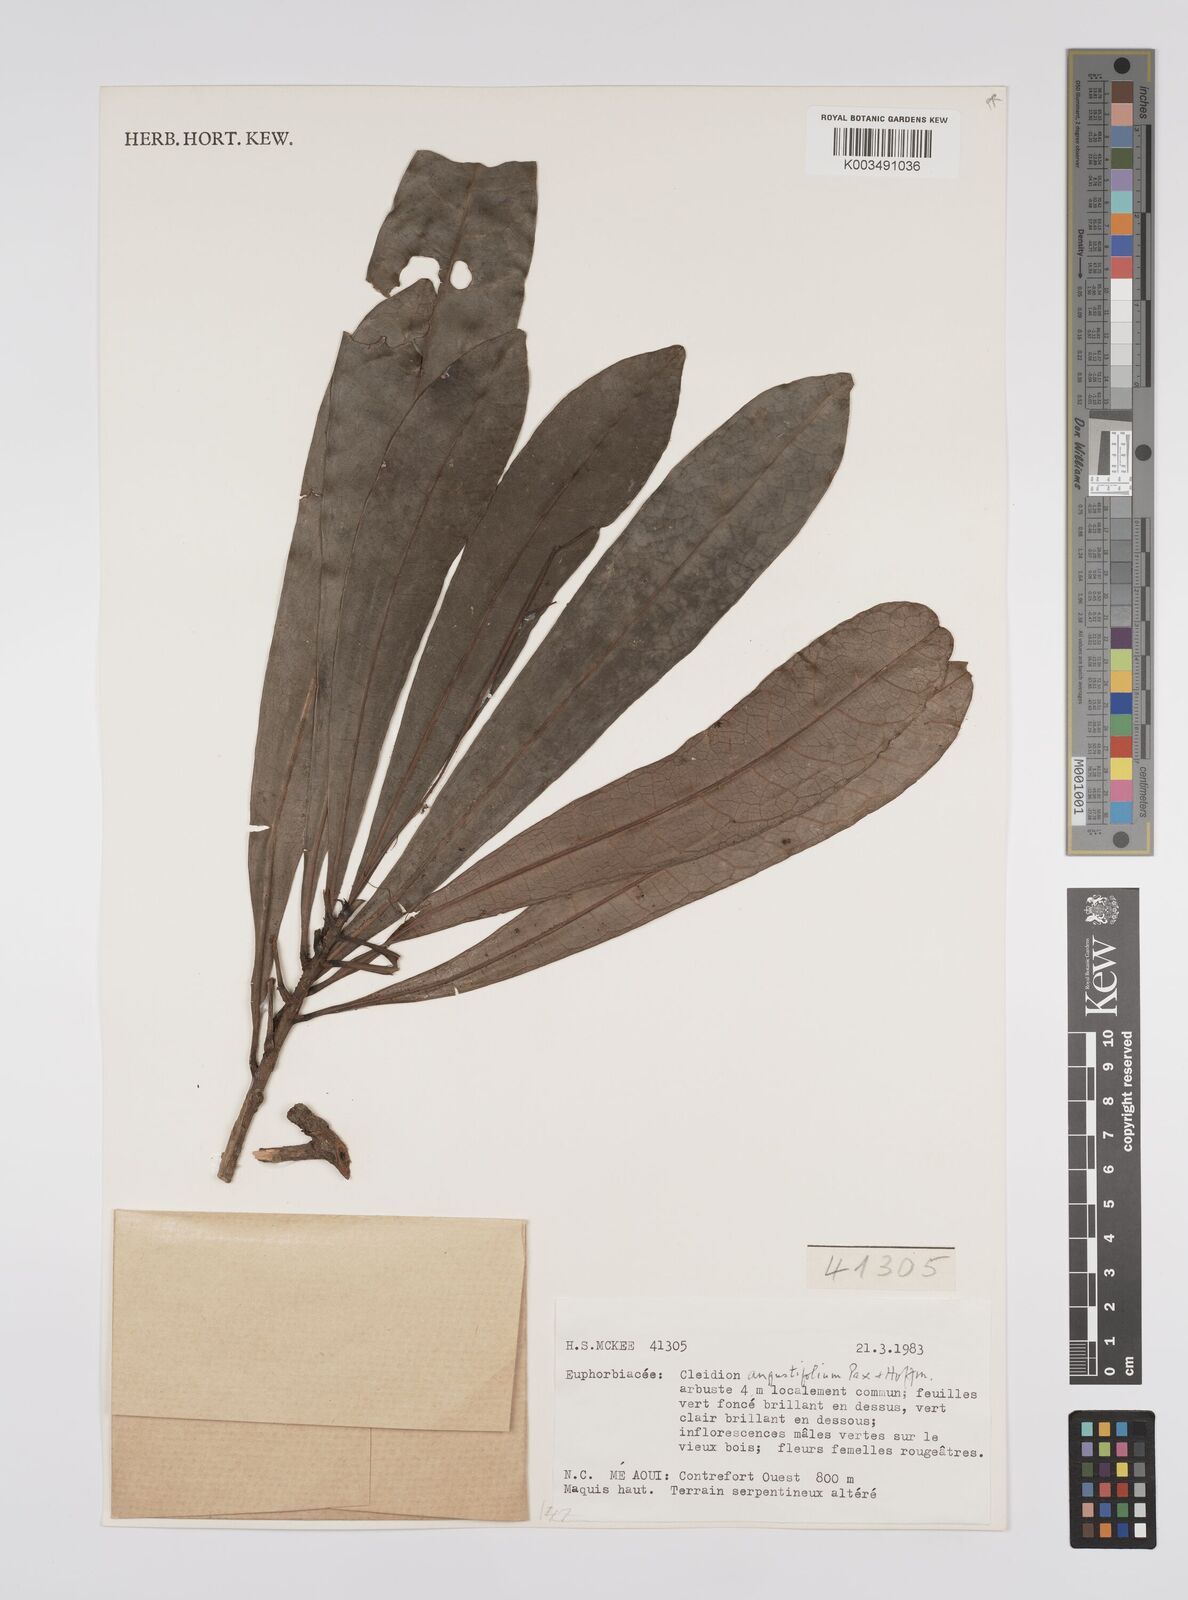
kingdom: Plantae
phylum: Tracheophyta
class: Magnoliopsida
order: Malpighiales
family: Euphorbiaceae
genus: Cleidion
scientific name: Cleidion vieillardii
